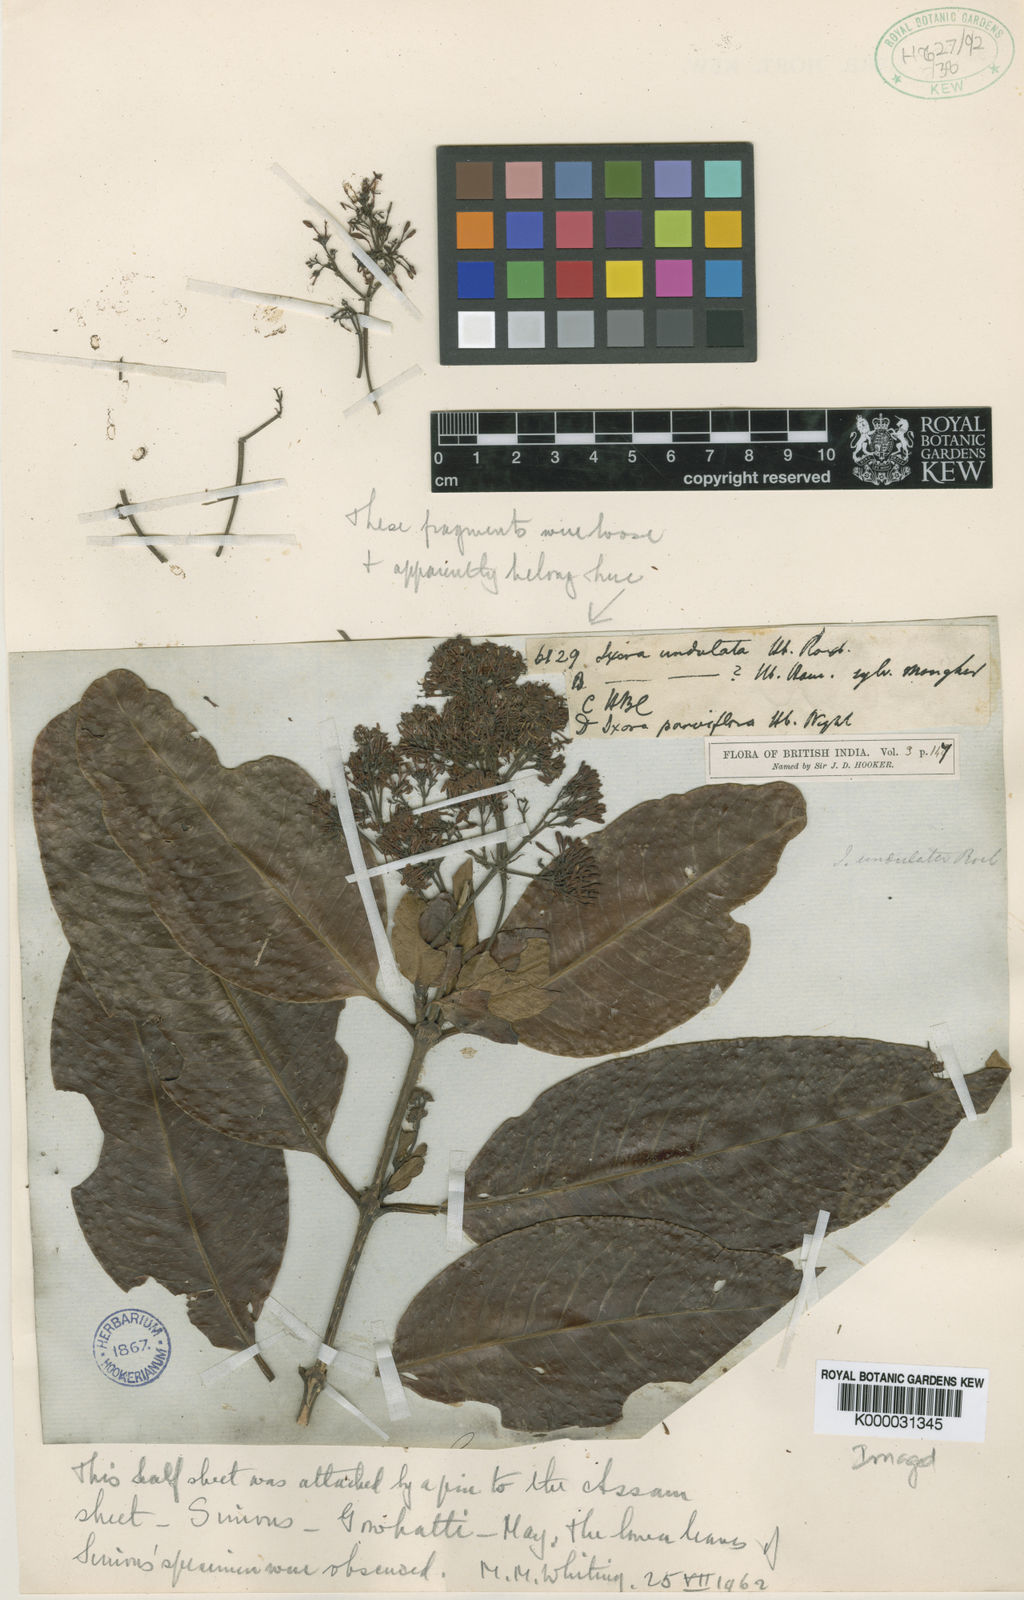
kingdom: Plantae
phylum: Tracheophyta
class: Magnoliopsida
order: Gentianales
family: Rubiaceae
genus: Ixora
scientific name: Ixora undulata
